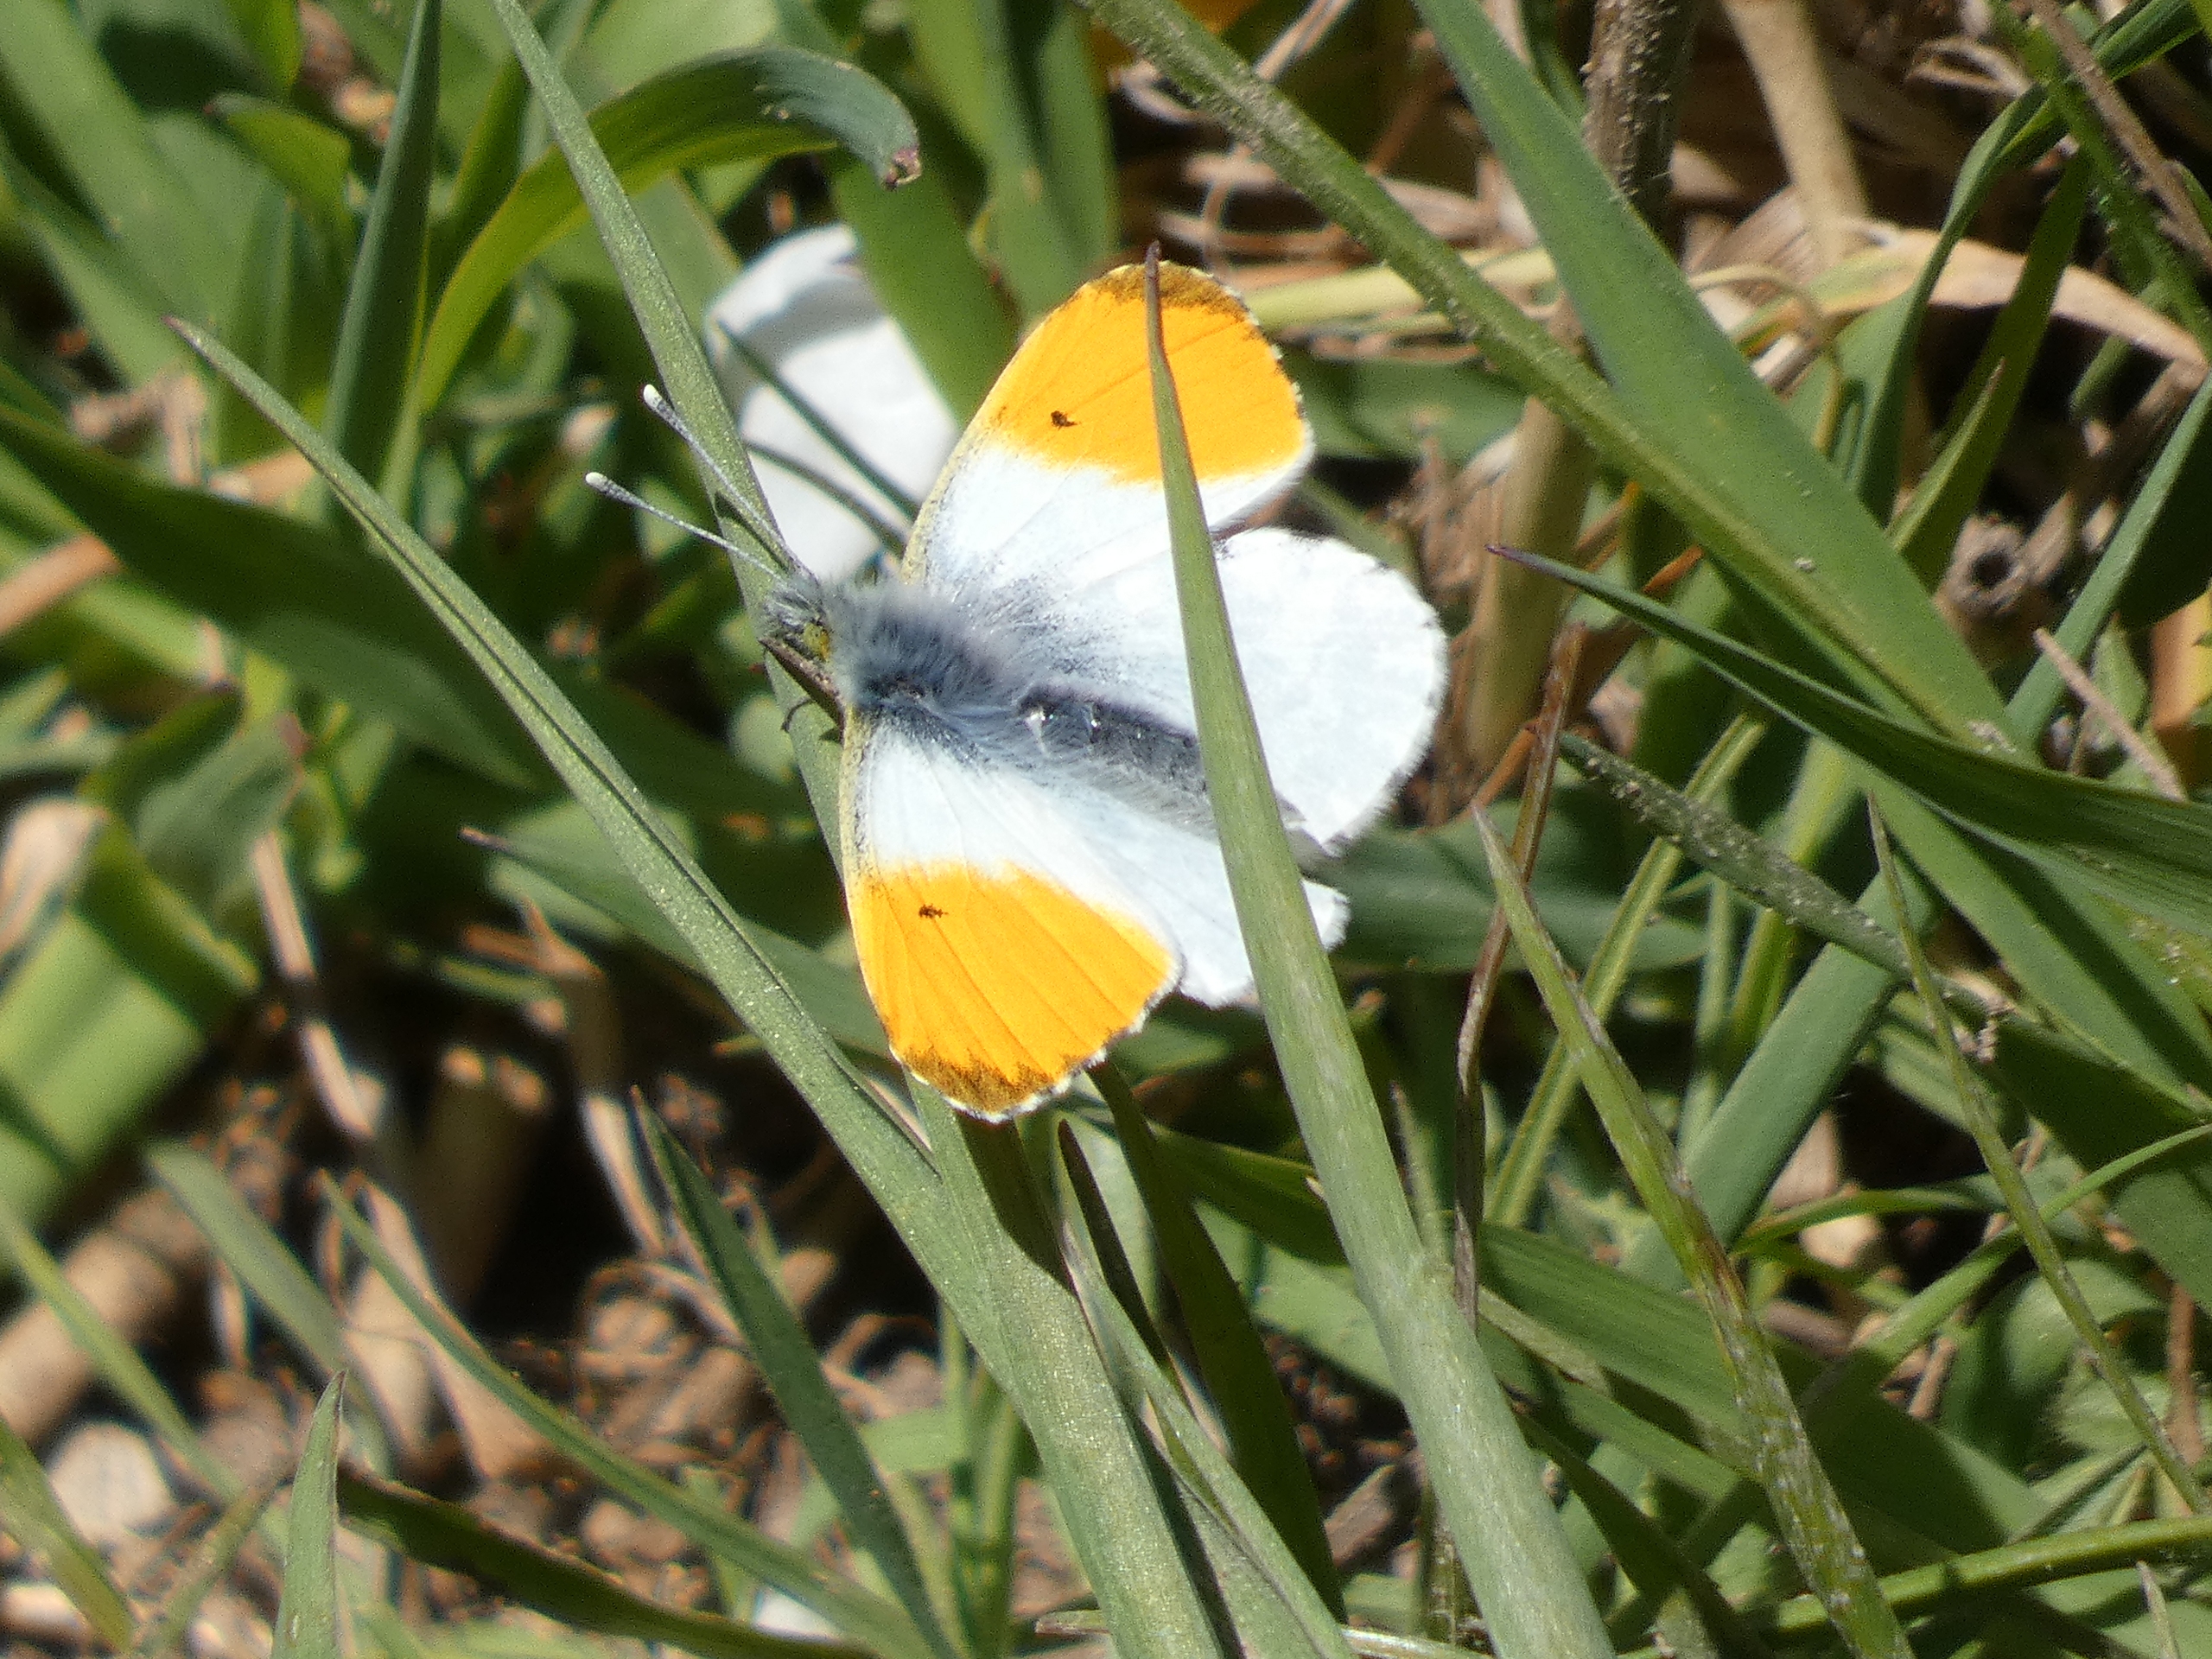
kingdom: Animalia
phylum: Arthropoda
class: Insecta
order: Lepidoptera
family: Pieridae
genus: Anthocharis
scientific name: Anthocharis cardamines
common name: Aurora
